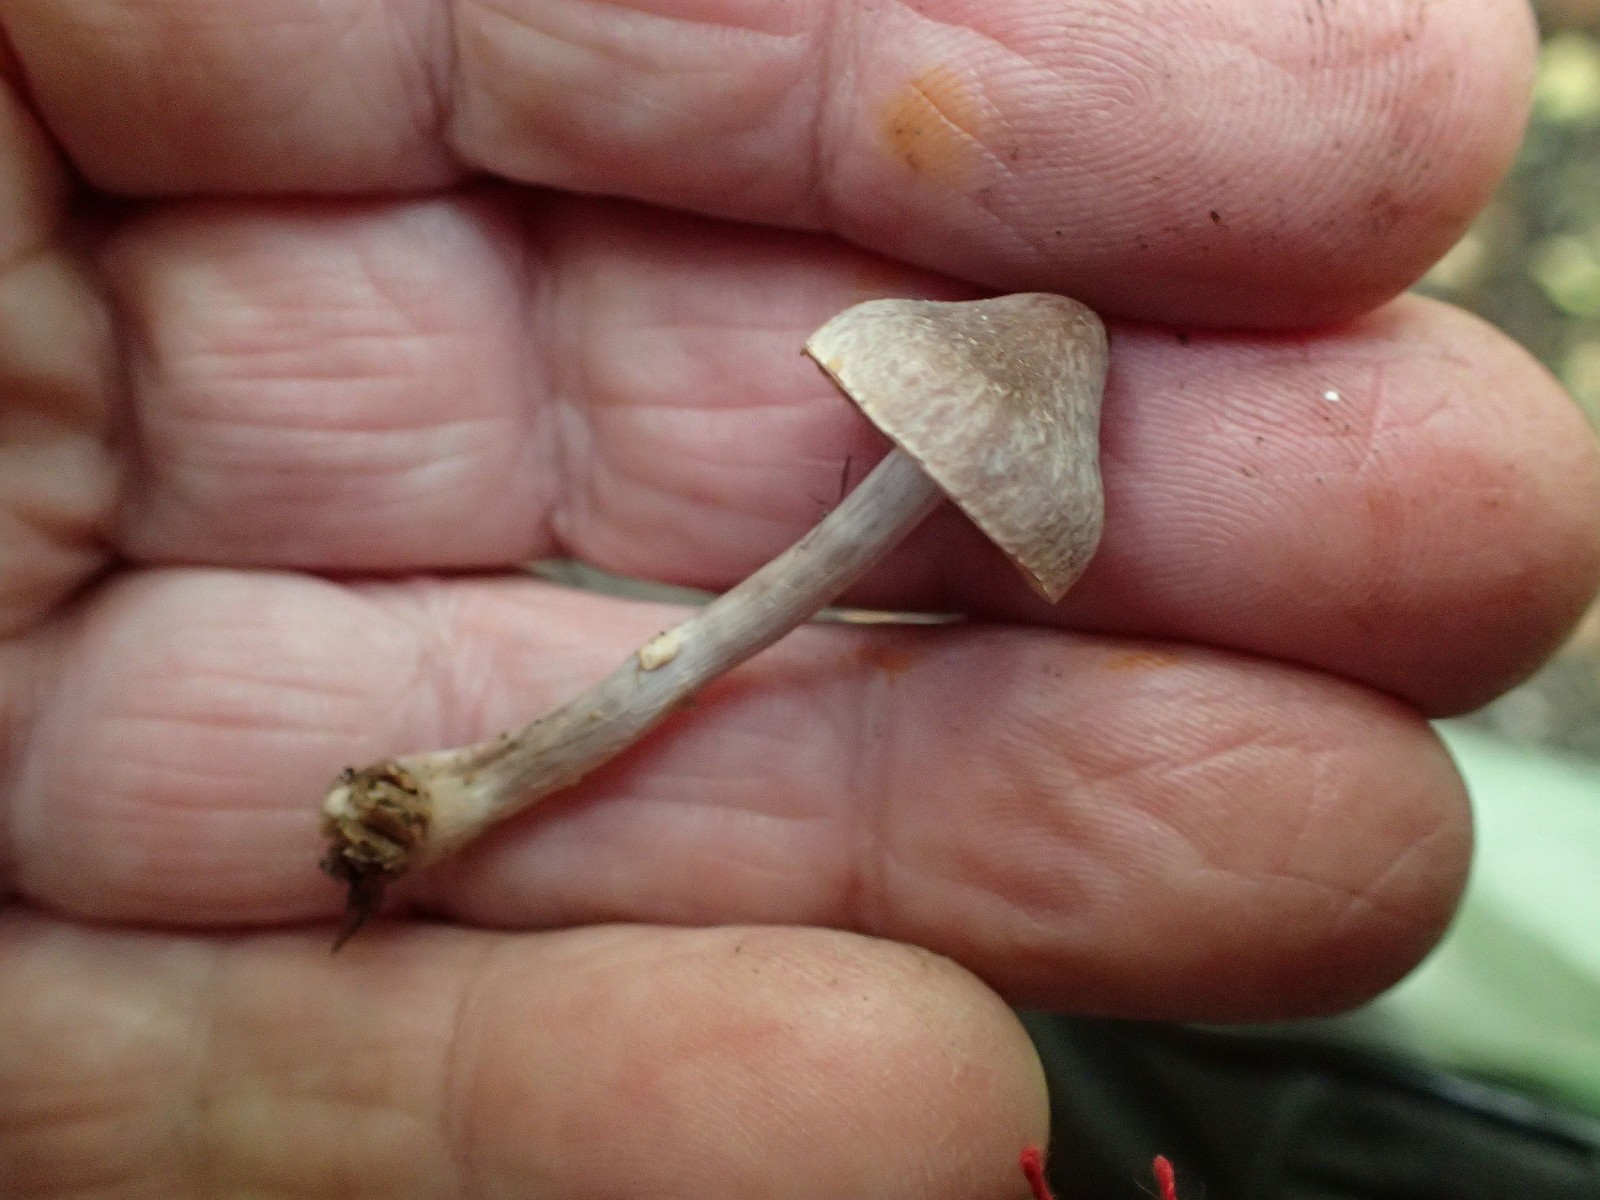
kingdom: Fungi
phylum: Basidiomycota
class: Agaricomycetes
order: Agaricales
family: Cortinariaceae
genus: Cortinarius
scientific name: Cortinarius
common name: pelargonie-slørhat
